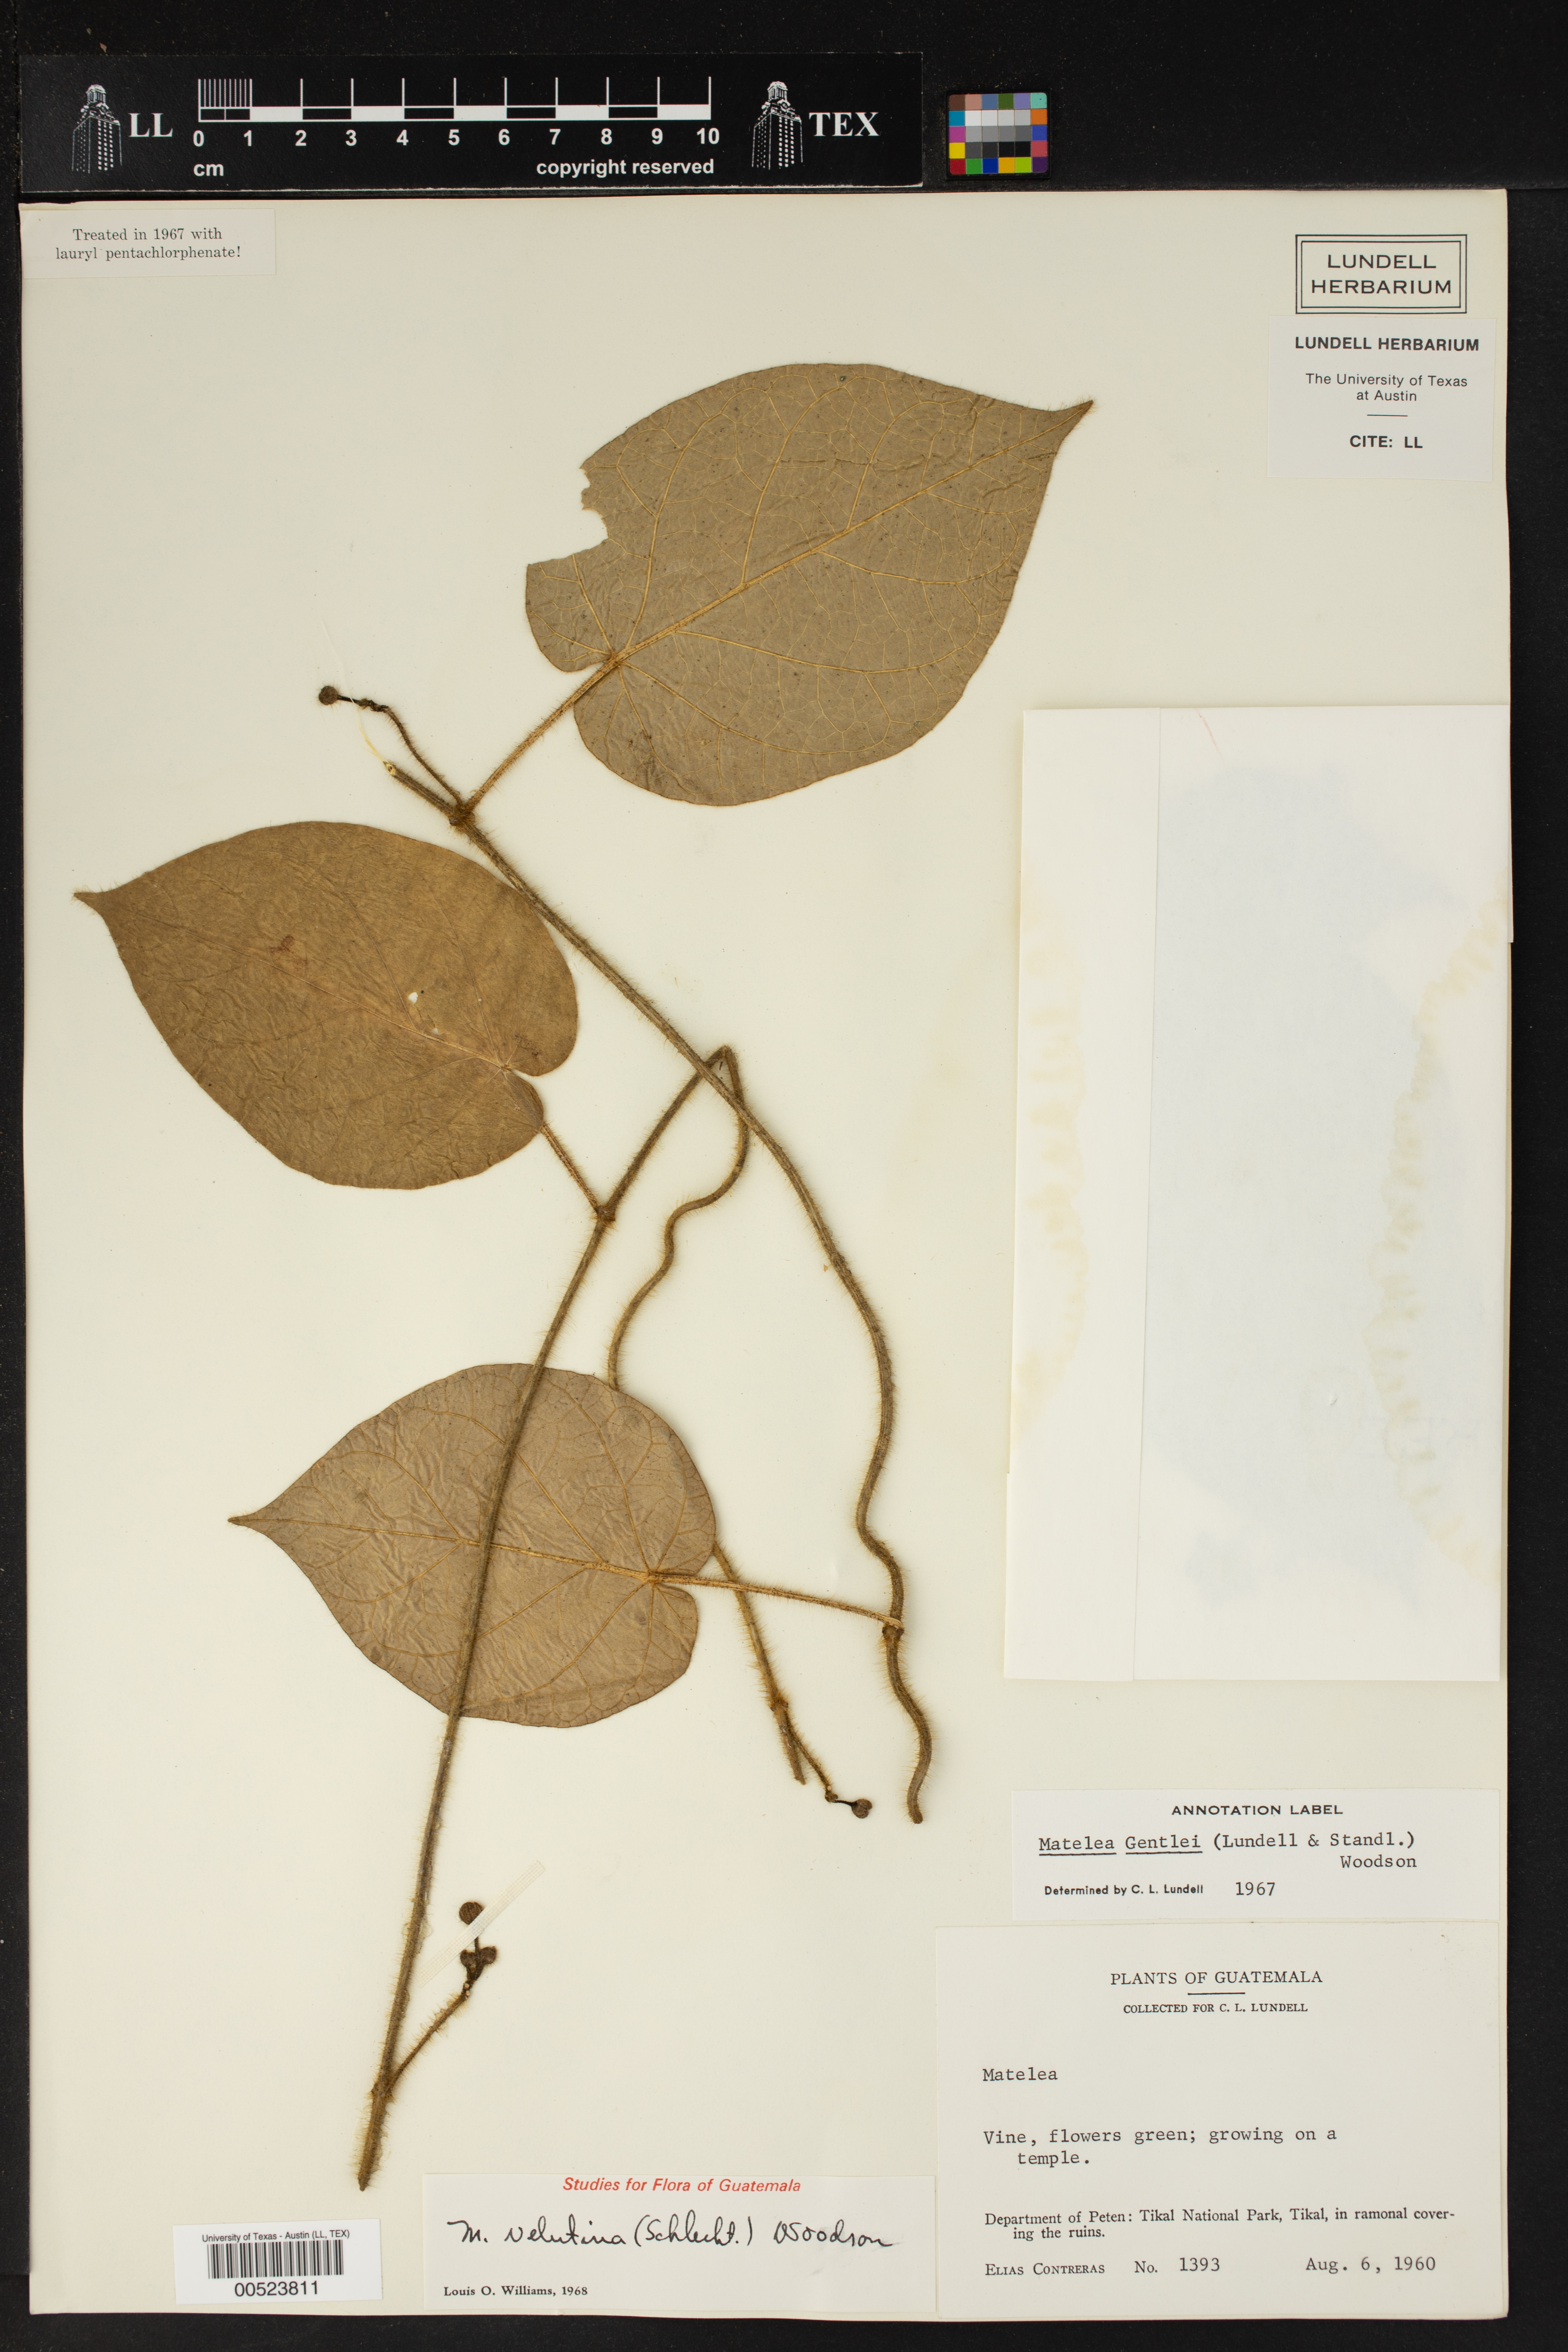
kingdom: Plantae
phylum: Tracheophyta
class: Magnoliopsida
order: Gentianales
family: Apocynaceae
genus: Matelea
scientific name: Matelea velutina
